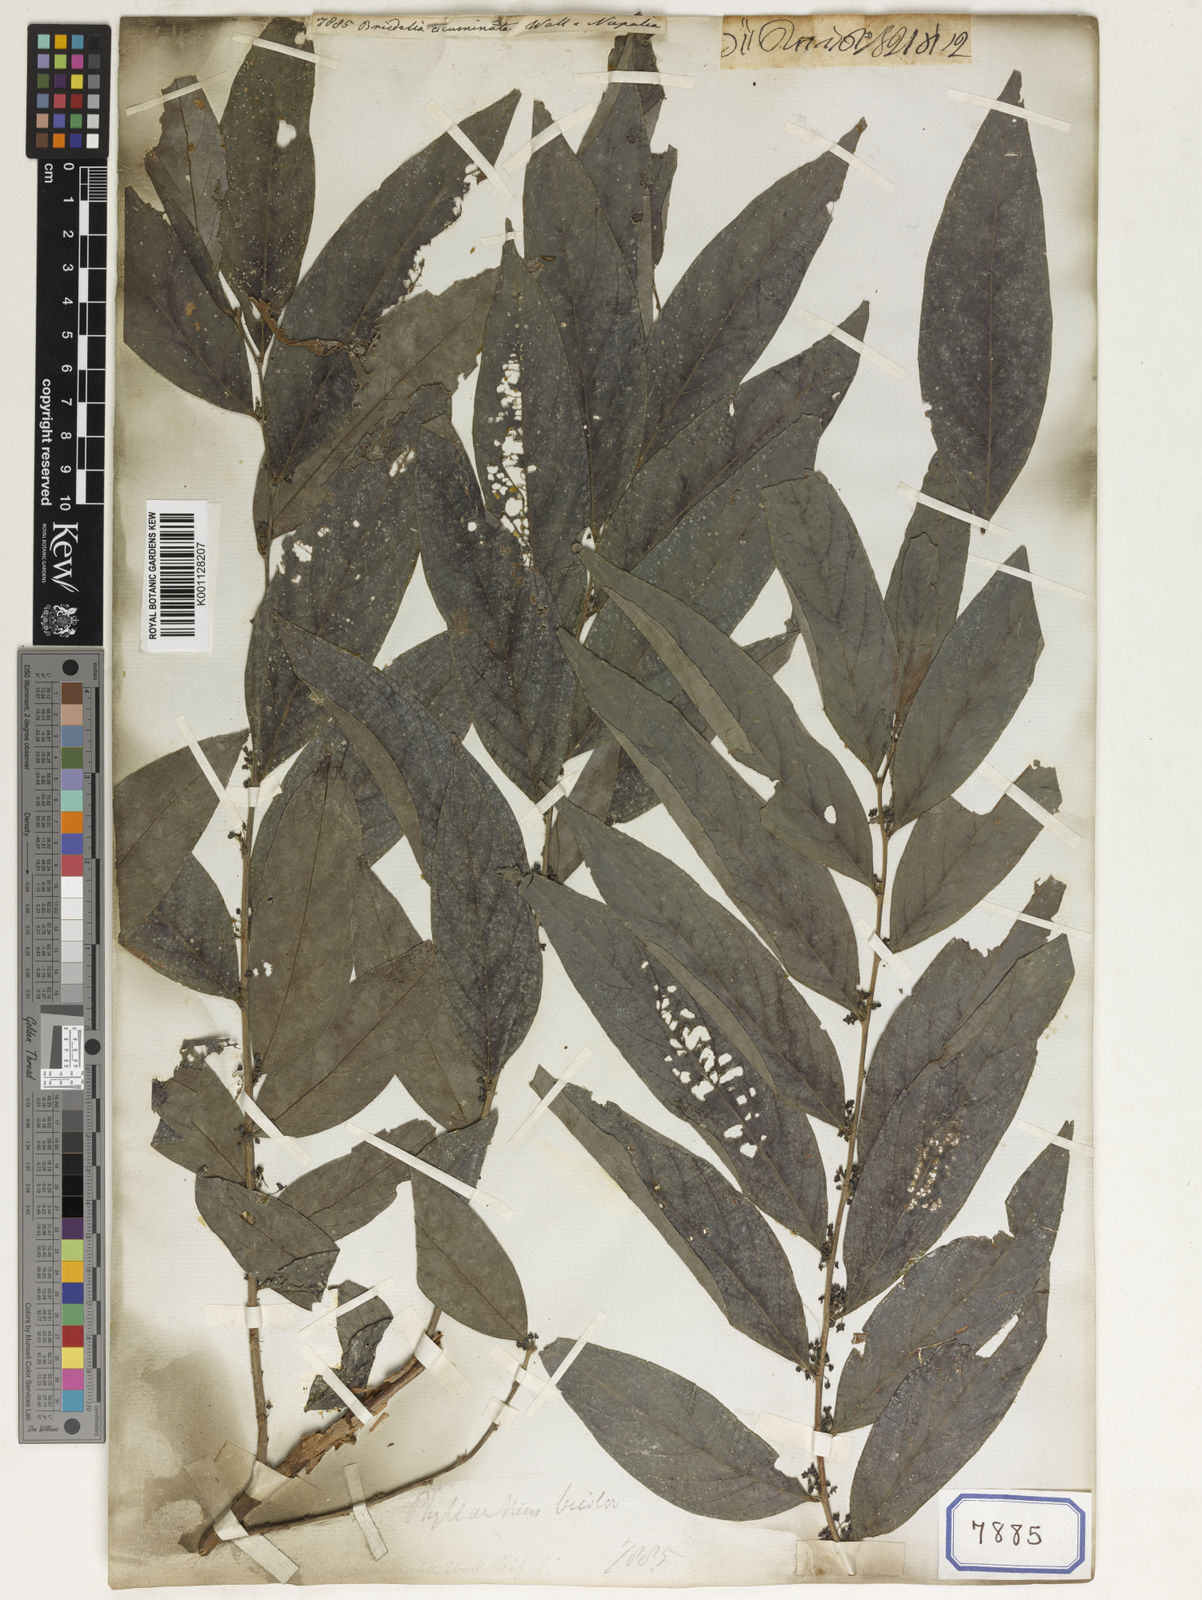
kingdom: Plantae
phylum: Tracheophyta
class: Magnoliopsida
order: Malpighiales
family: Phyllanthaceae
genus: Bridelia
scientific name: Bridelia
